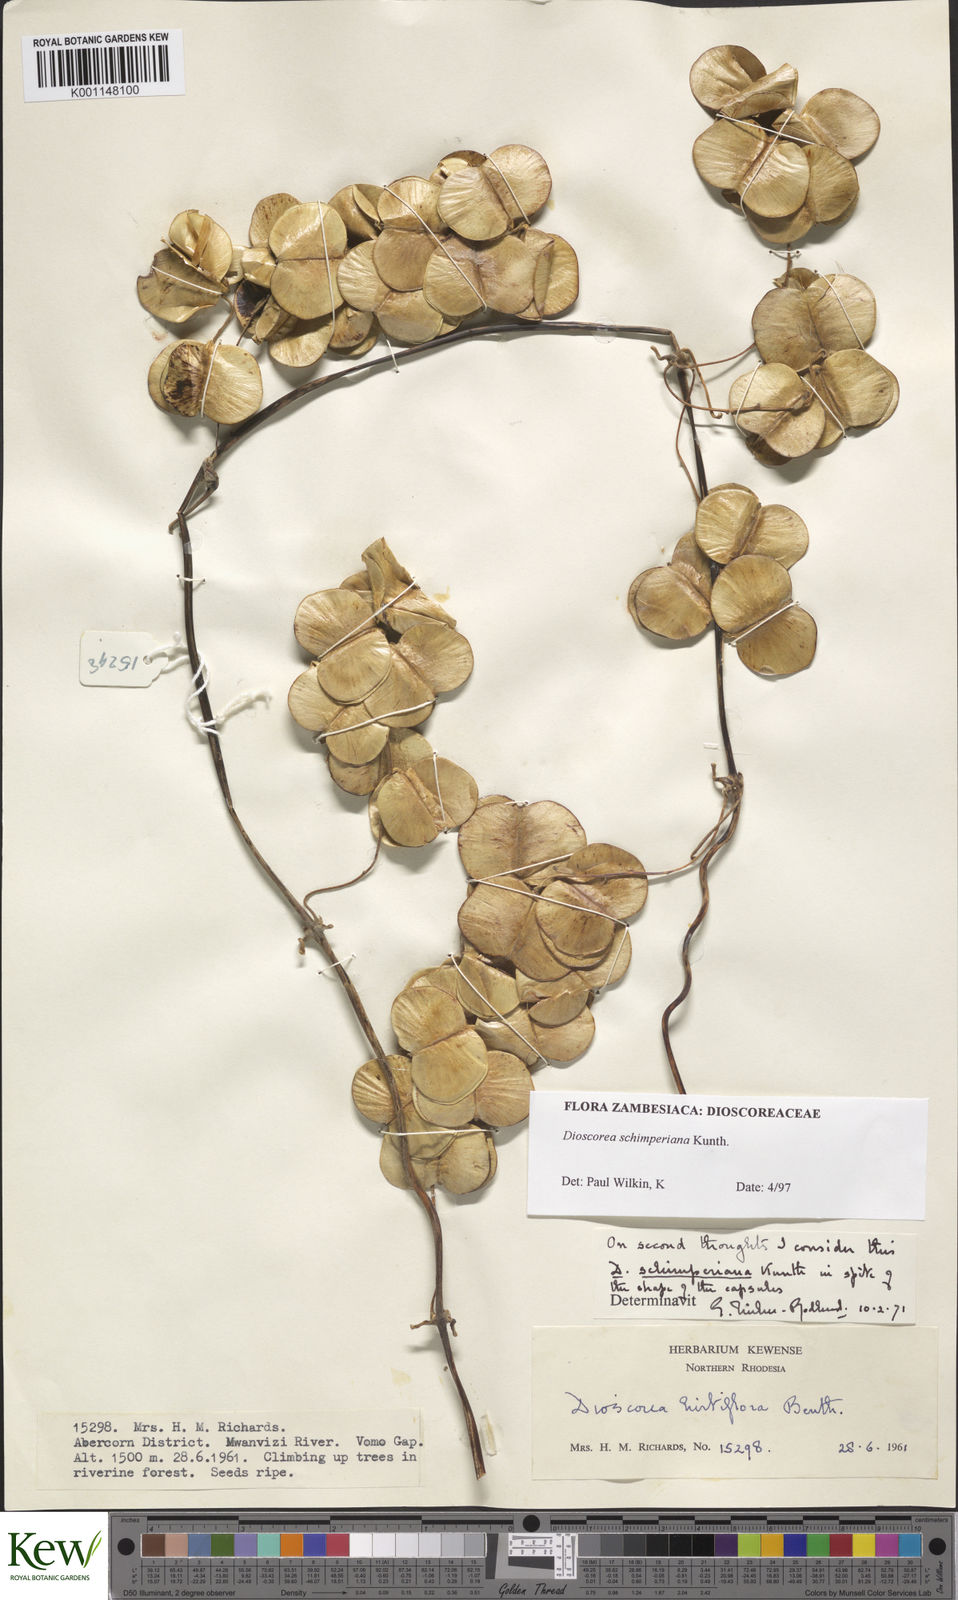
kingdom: Plantae
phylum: Tracheophyta
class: Liliopsida
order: Dioscoreales
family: Dioscoreaceae
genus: Dioscorea
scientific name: Dioscorea schimperiana
